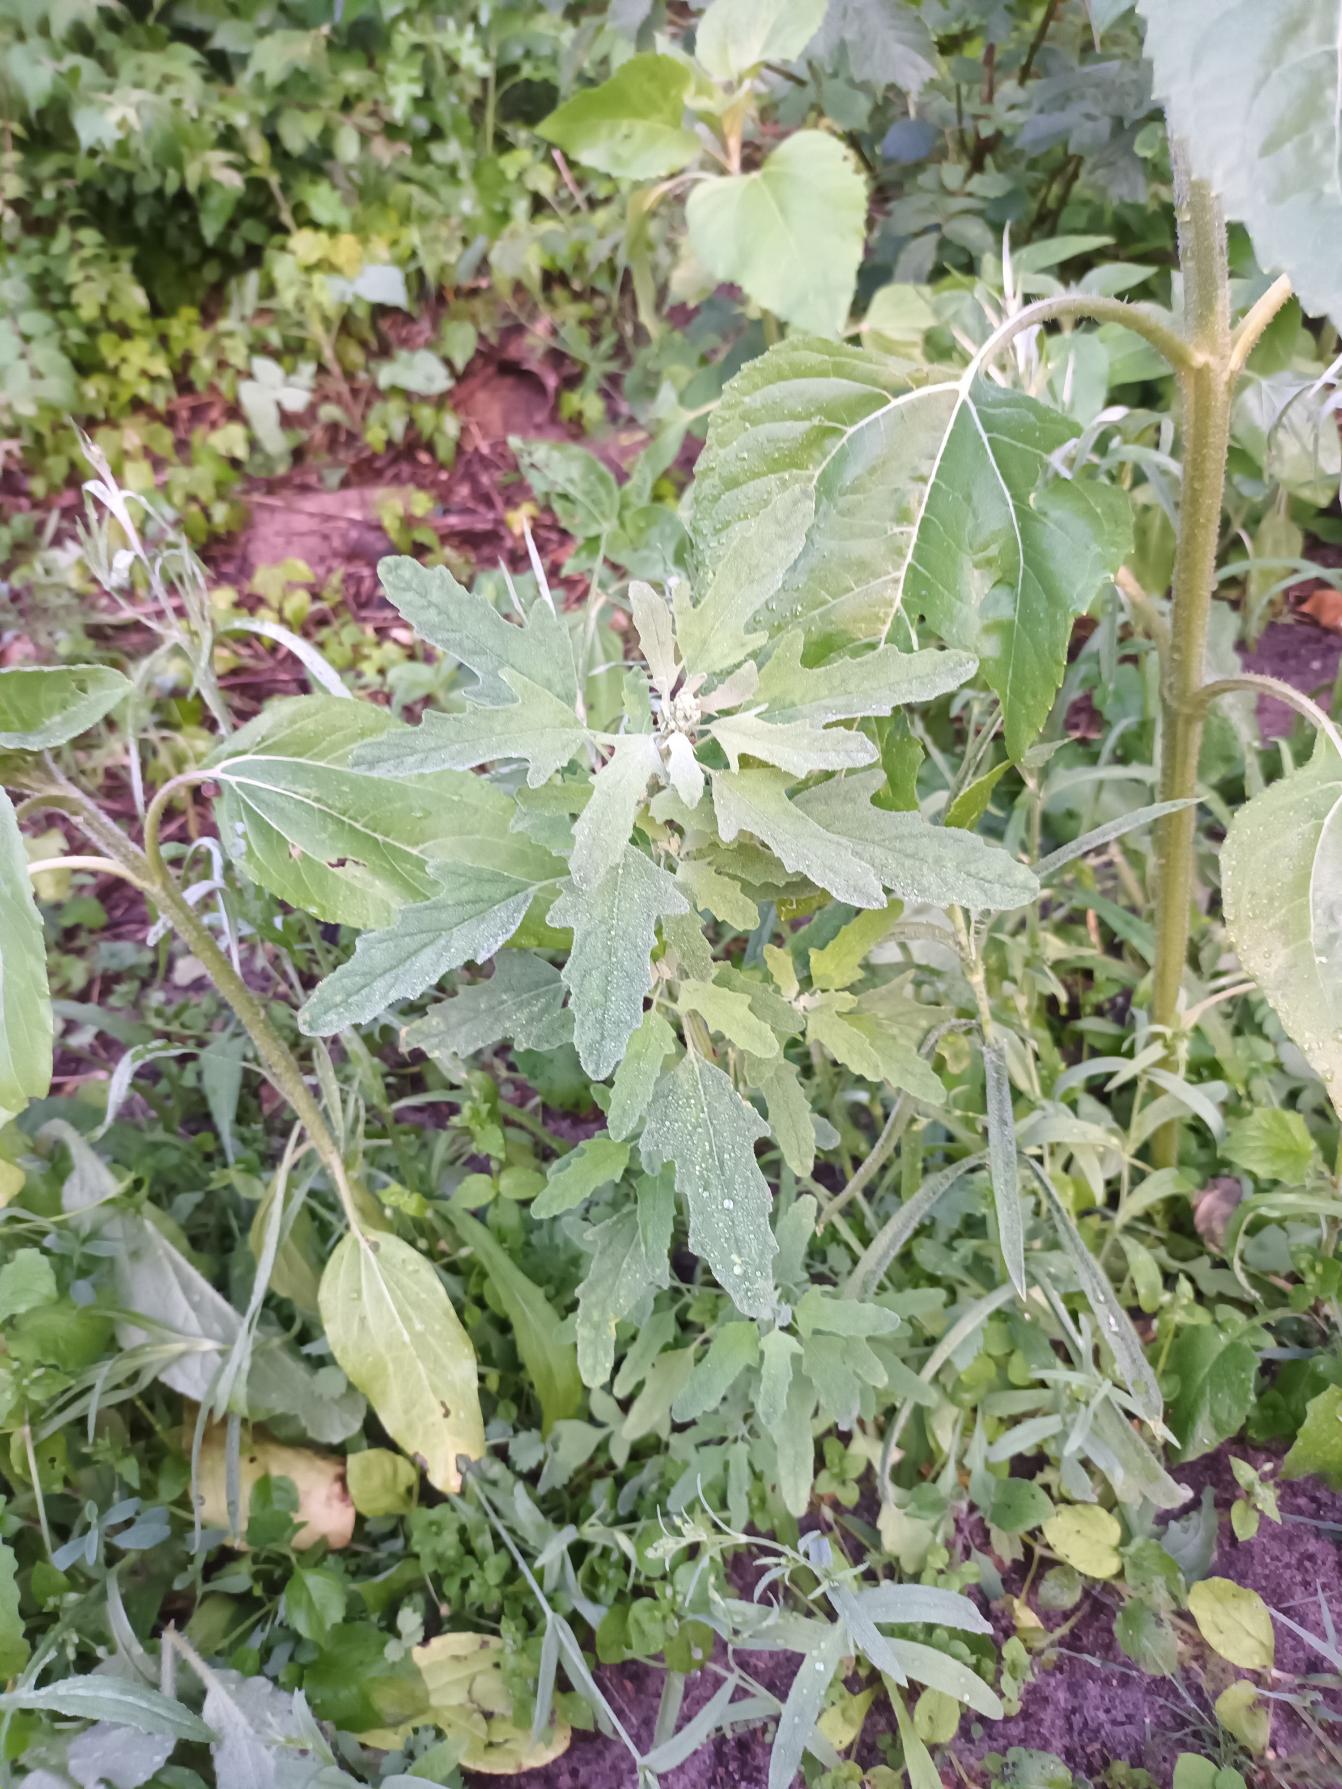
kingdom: Plantae
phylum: Tracheophyta
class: Magnoliopsida
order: Caryophyllales
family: Amaranthaceae
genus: Chenopodium
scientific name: Chenopodium ficifolium
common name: Figenbladet gåsefod
